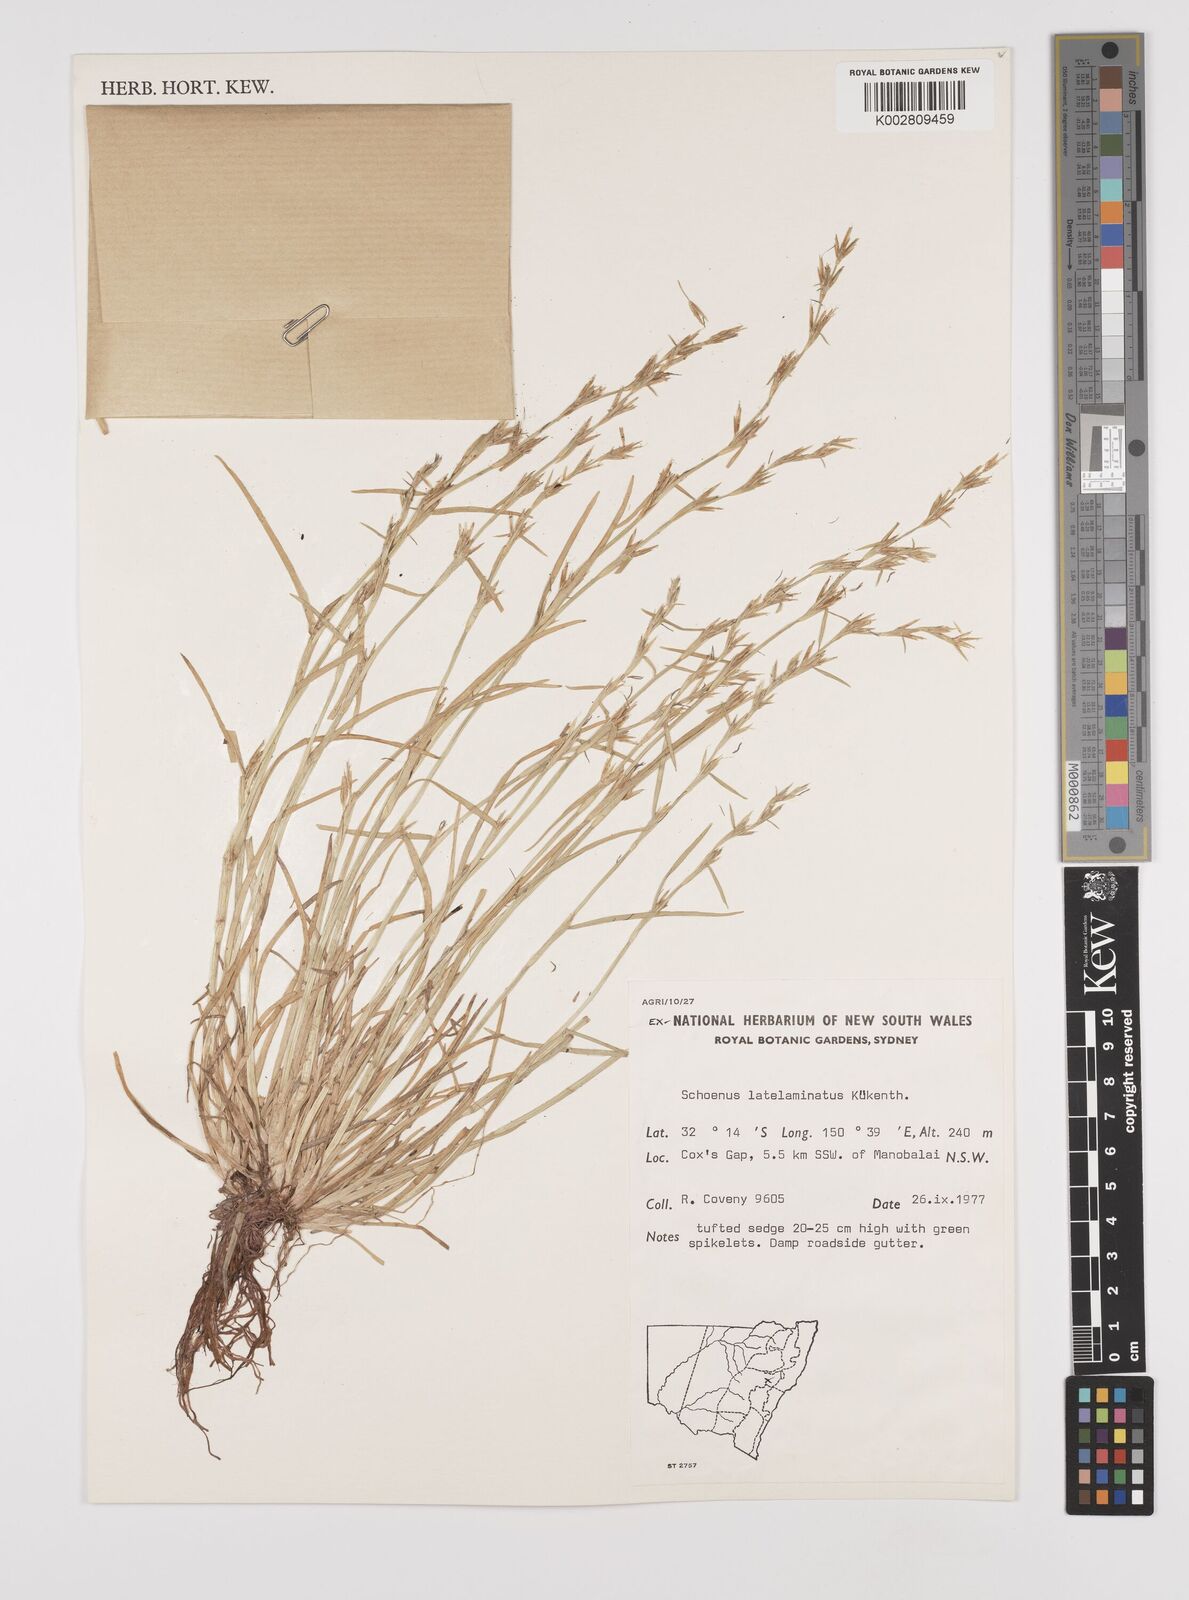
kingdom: Plantae
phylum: Tracheophyta
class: Liliopsida
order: Poales
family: Cyperaceae
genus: Schoenus
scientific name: Schoenus latelaminatus
